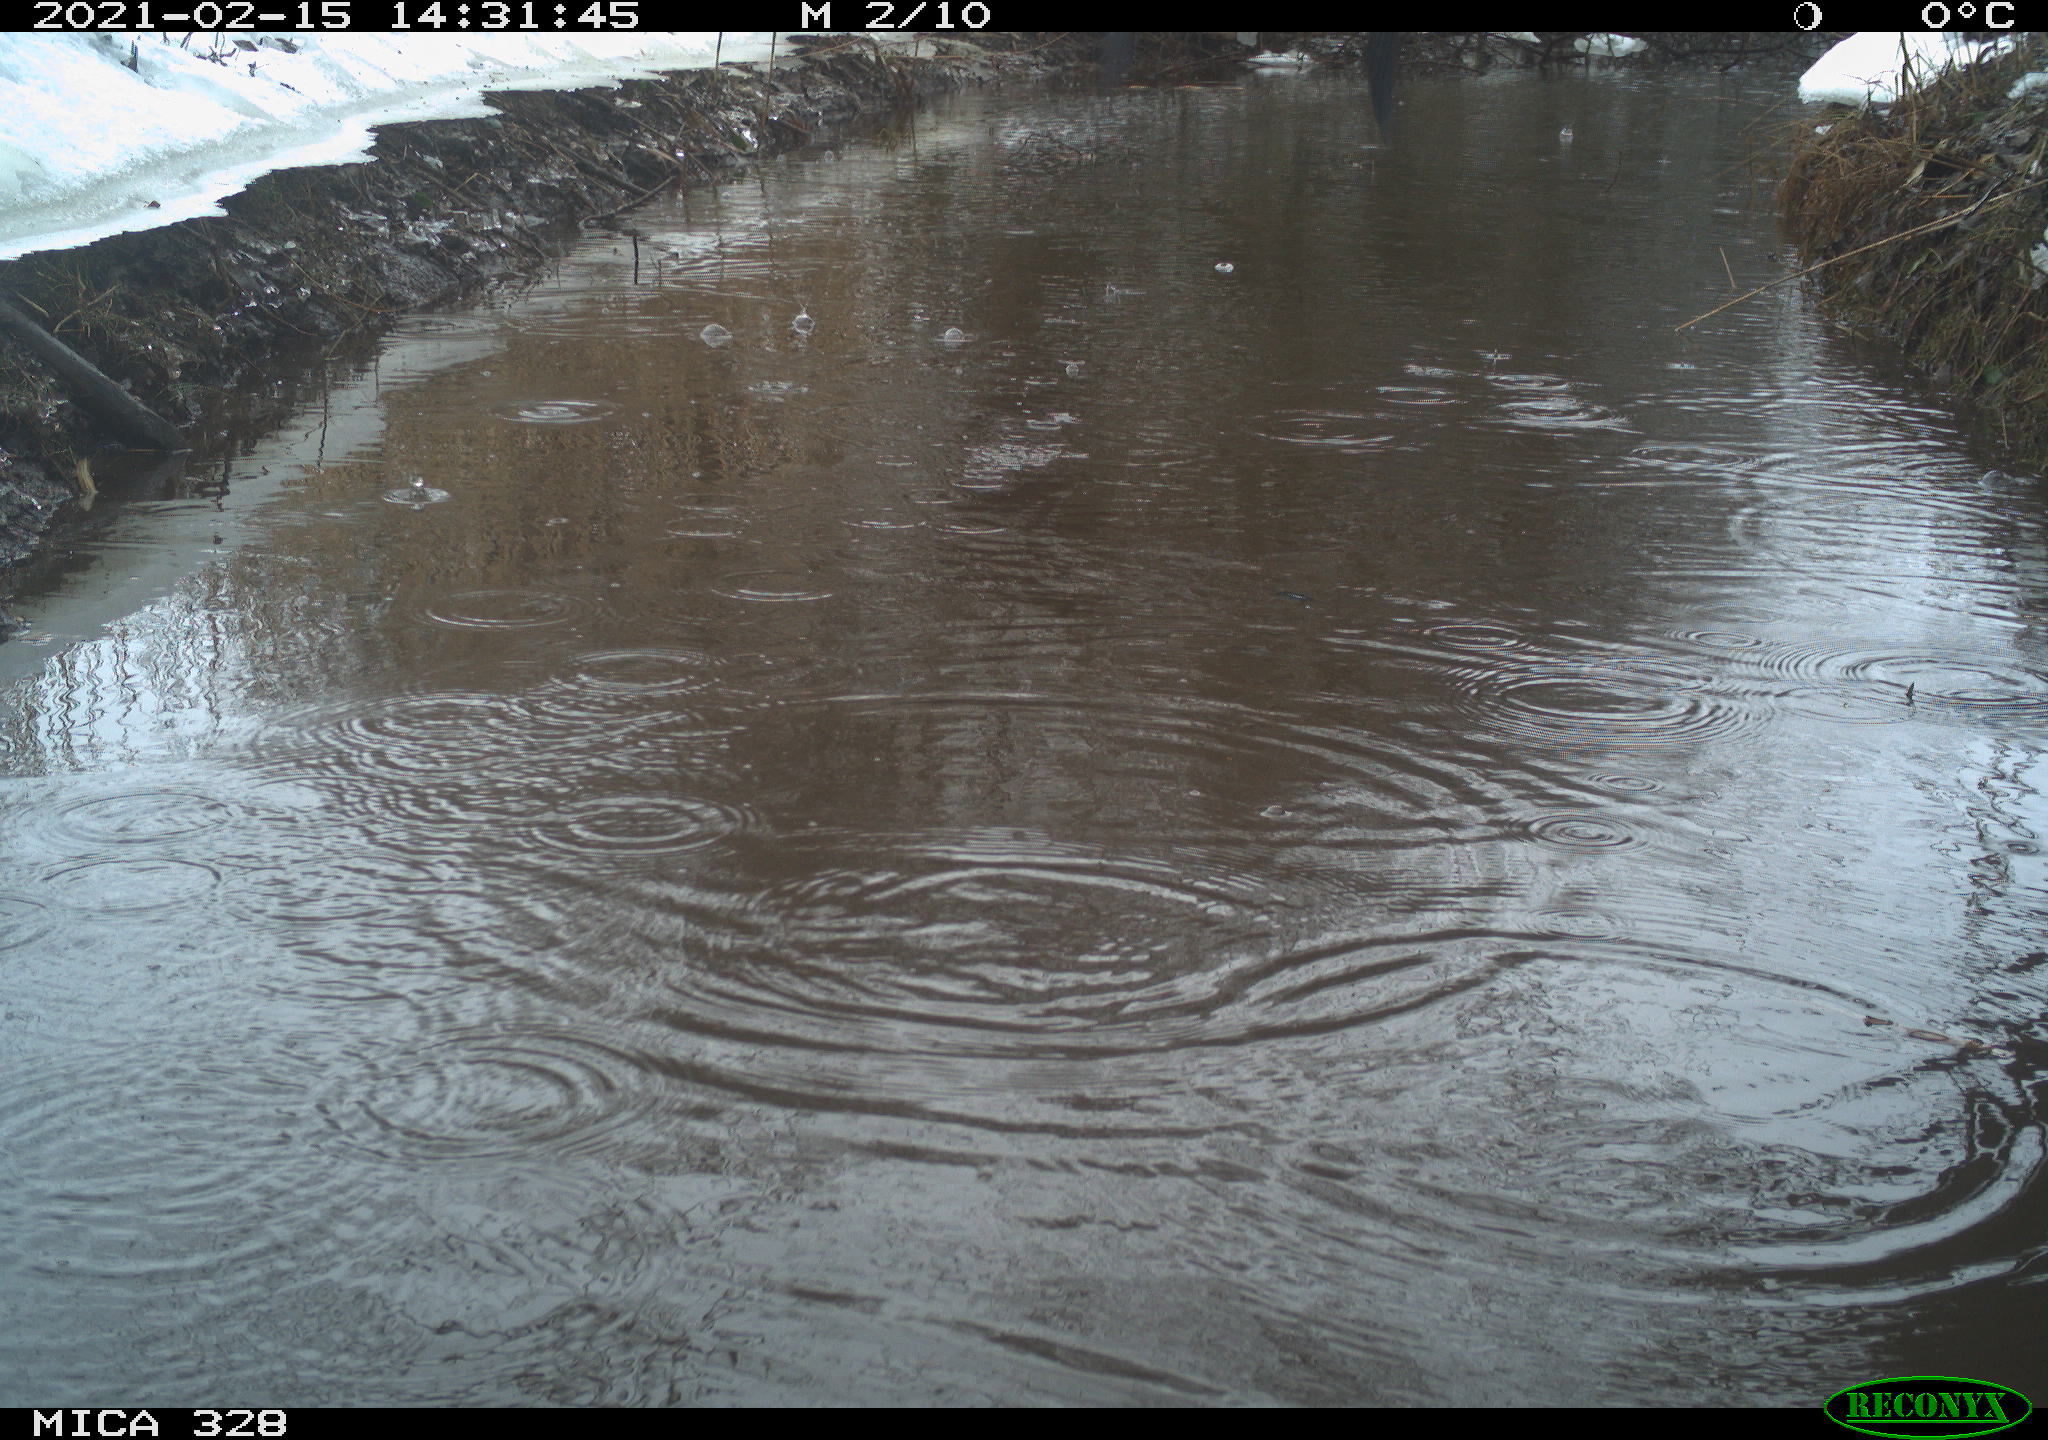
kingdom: Animalia
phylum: Chordata
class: Aves
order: Pelecaniformes
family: Ardeidae
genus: Ardea
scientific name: Ardea cinerea
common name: Grey heron
